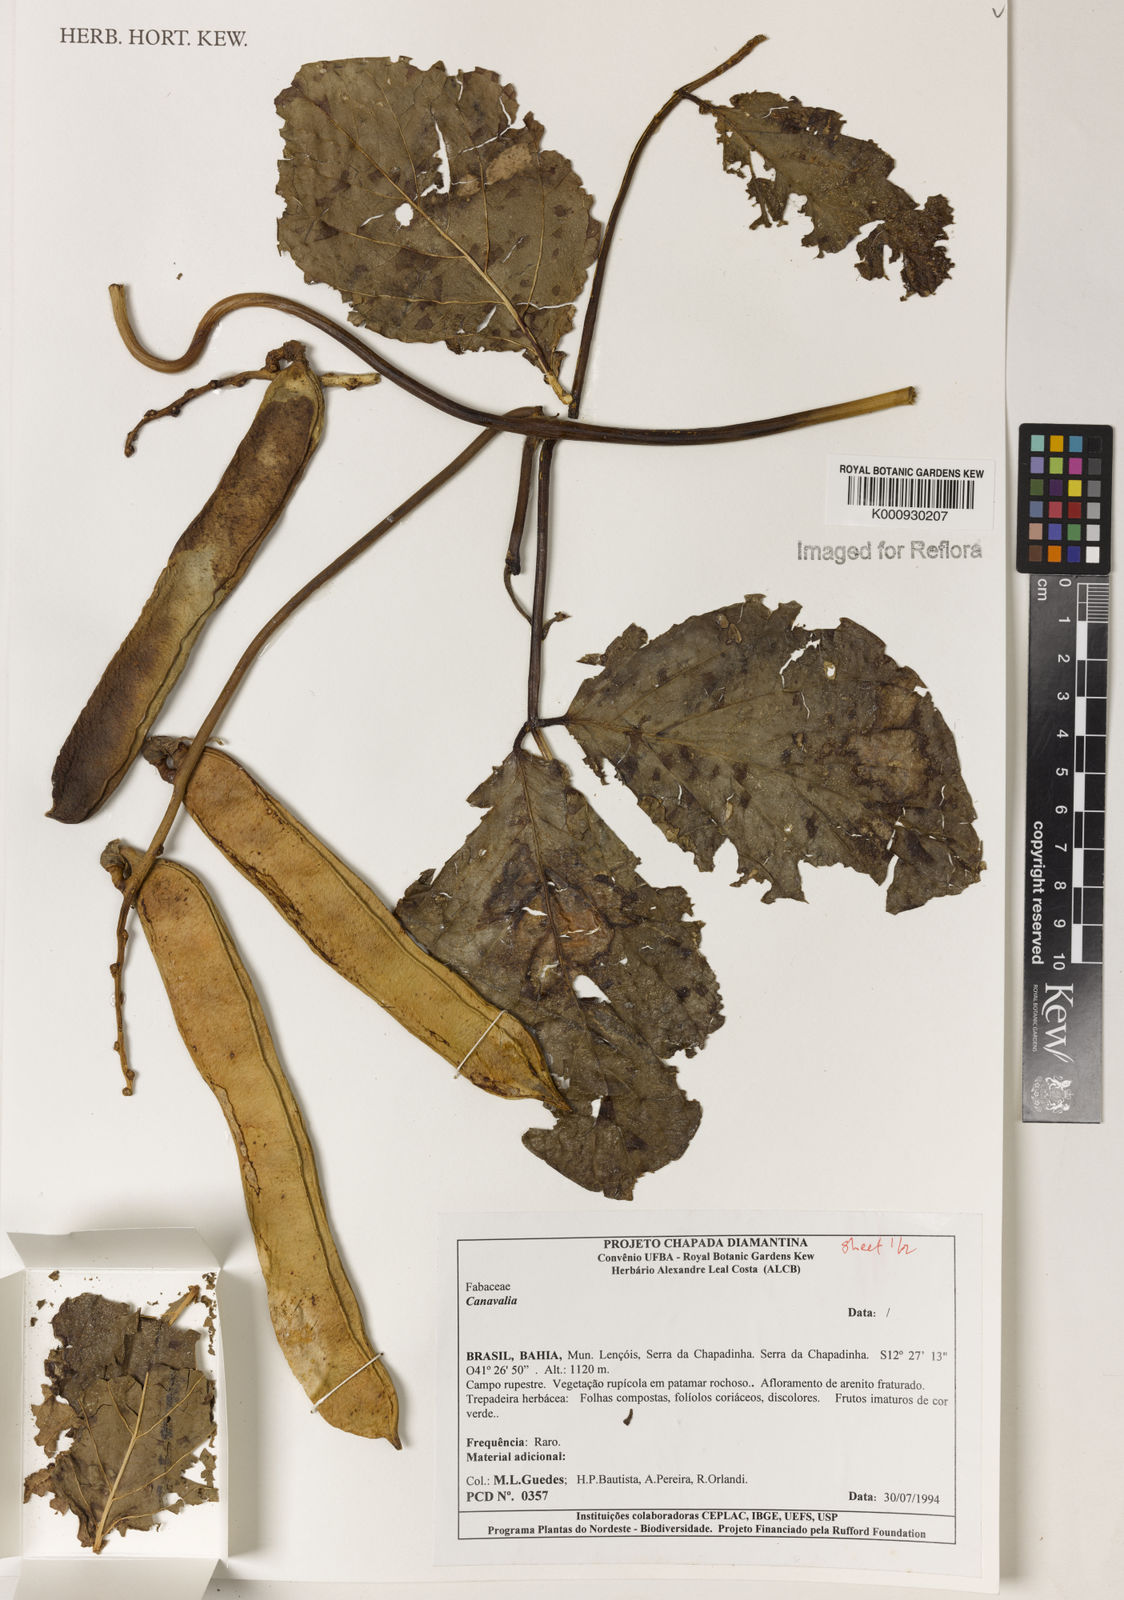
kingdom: Plantae
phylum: Tracheophyta
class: Magnoliopsida
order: Fabales
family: Fabaceae
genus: Canavalia
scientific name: Canavalia
